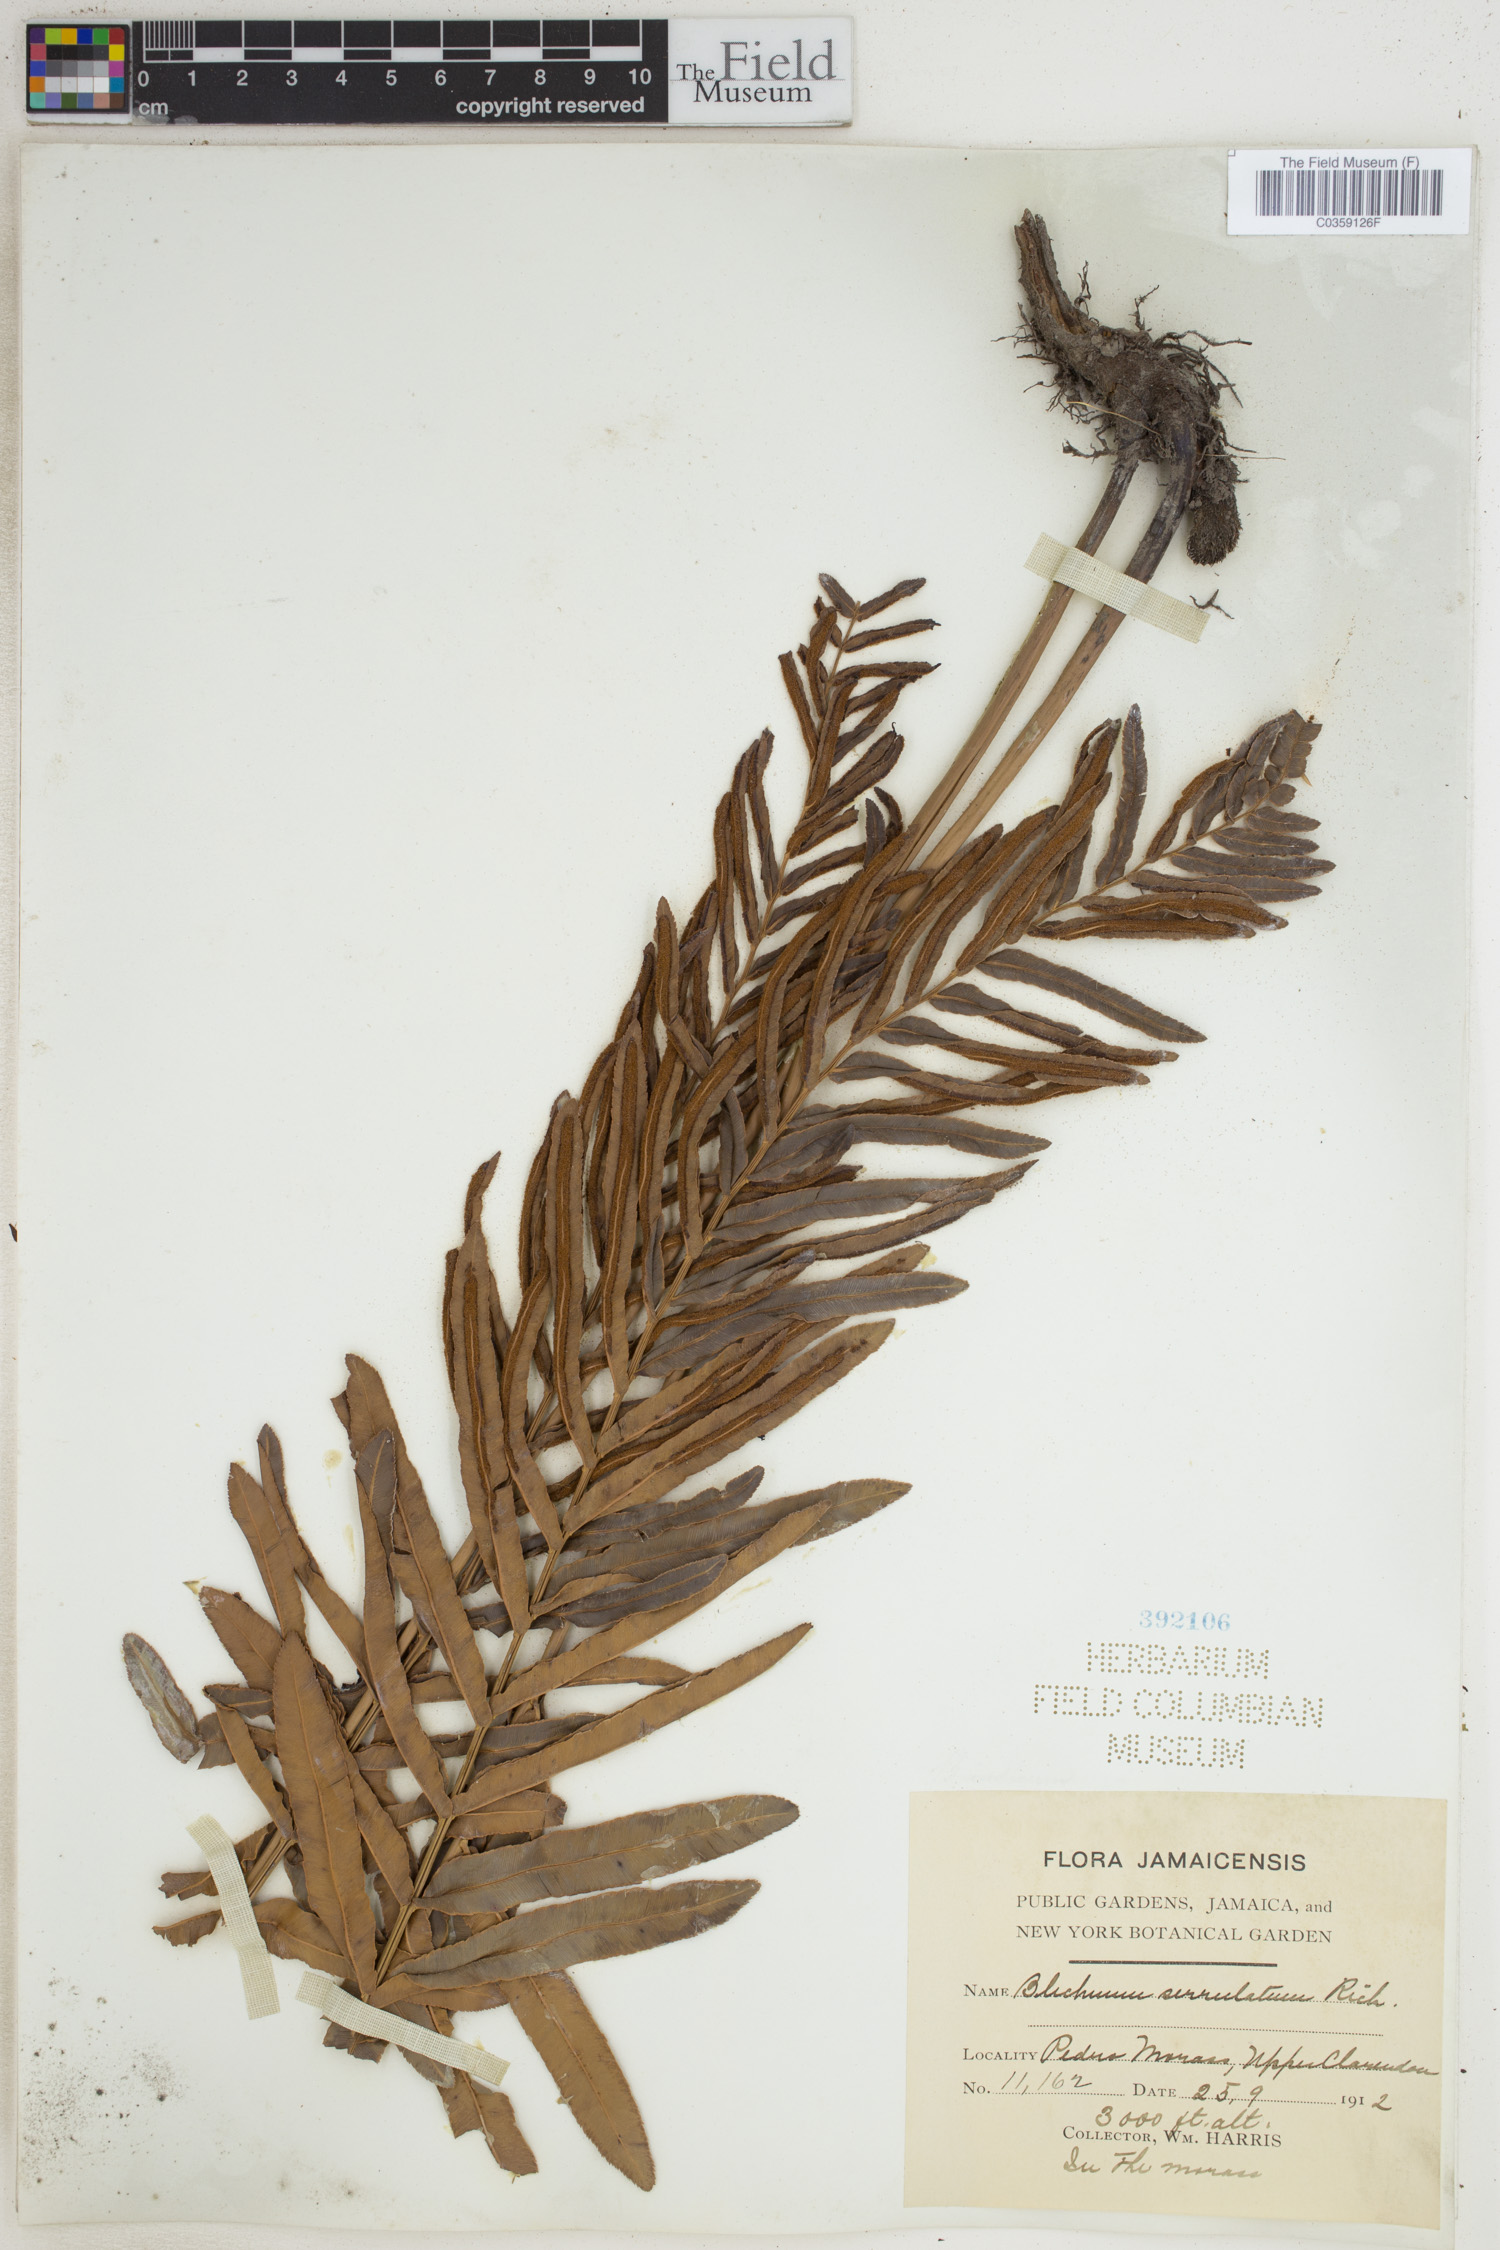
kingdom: Plantae
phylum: Tracheophyta
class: Polypodiopsida
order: Polypodiales
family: Blechnaceae
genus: Telmatoblechnum
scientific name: Telmatoblechnum serrulatum
